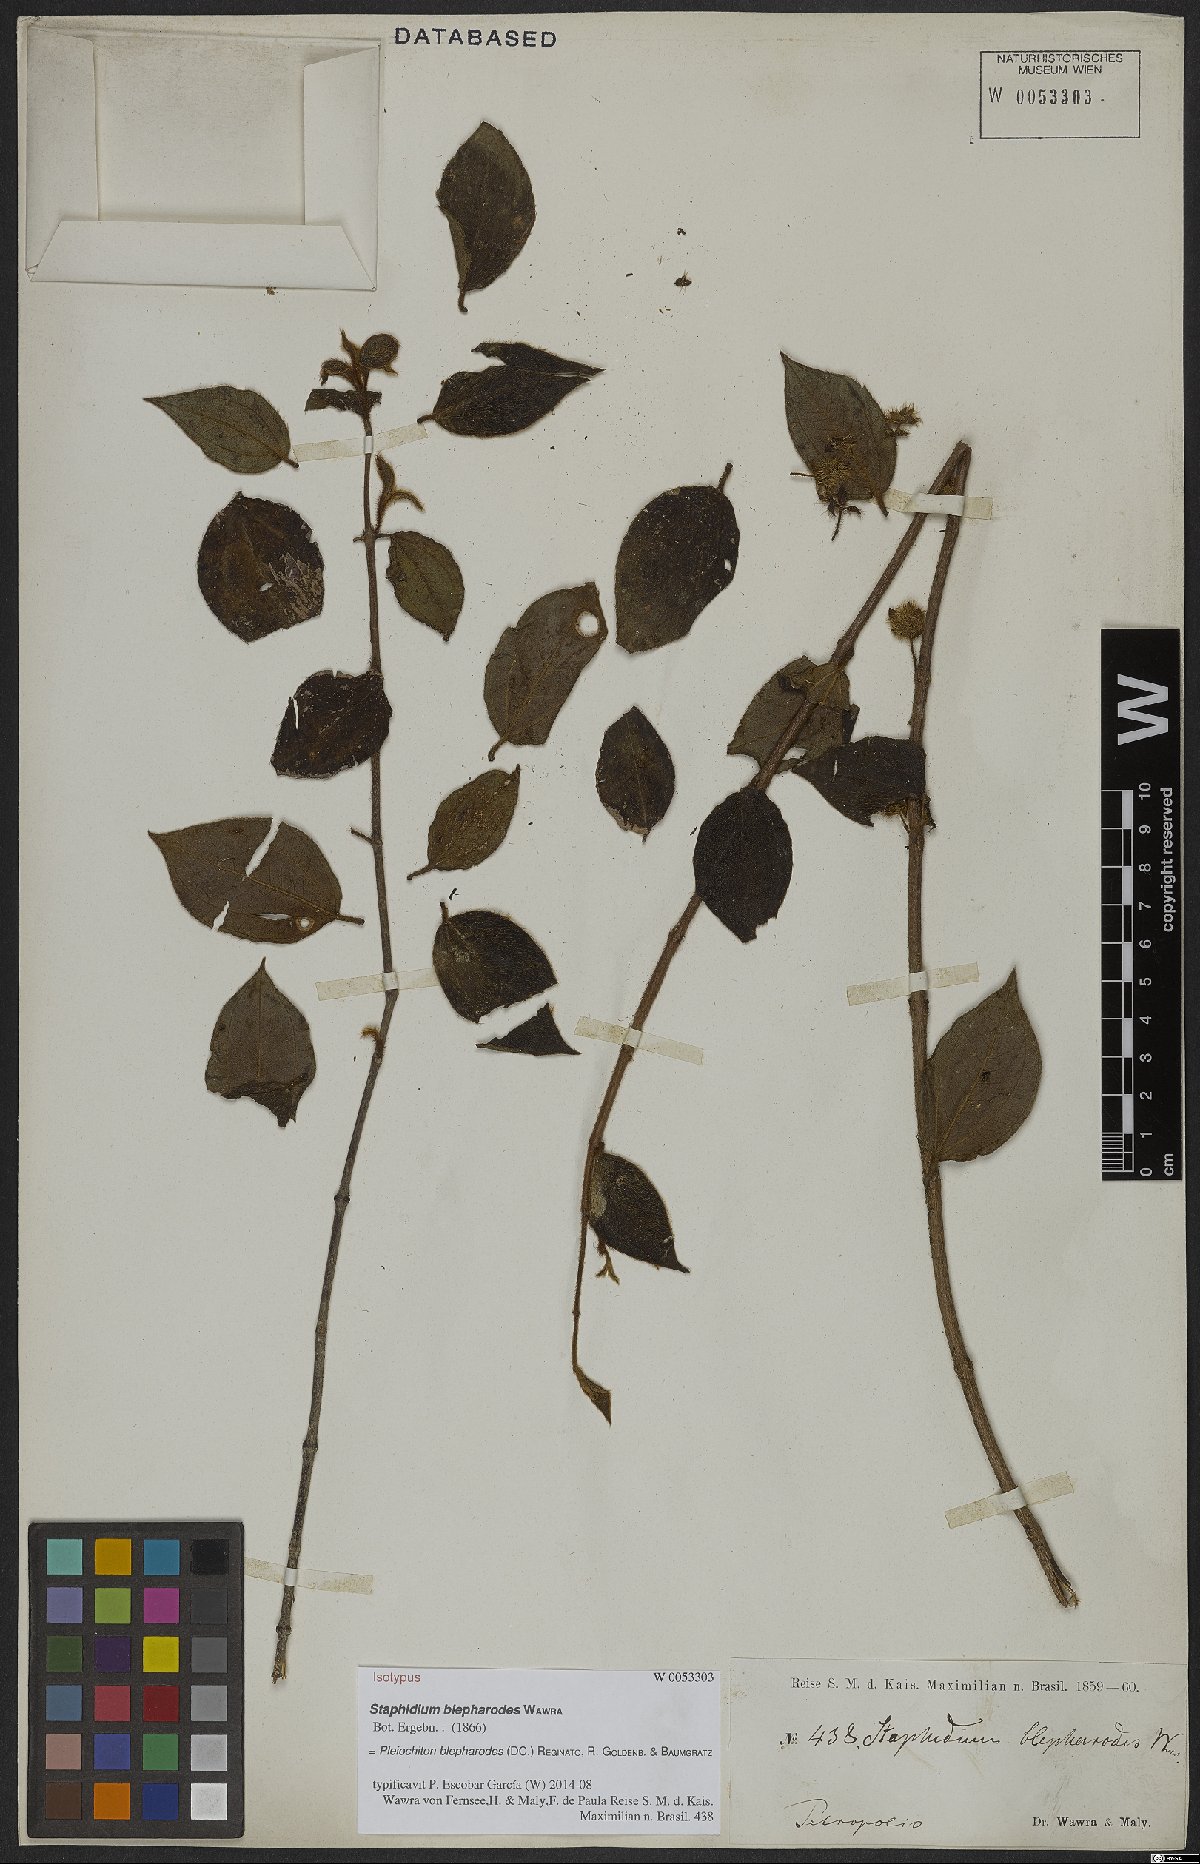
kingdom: Plantae
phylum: Tracheophyta
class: Magnoliopsida
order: Myrtales
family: Melastomataceae
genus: Miconia
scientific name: Miconia blepharodes
